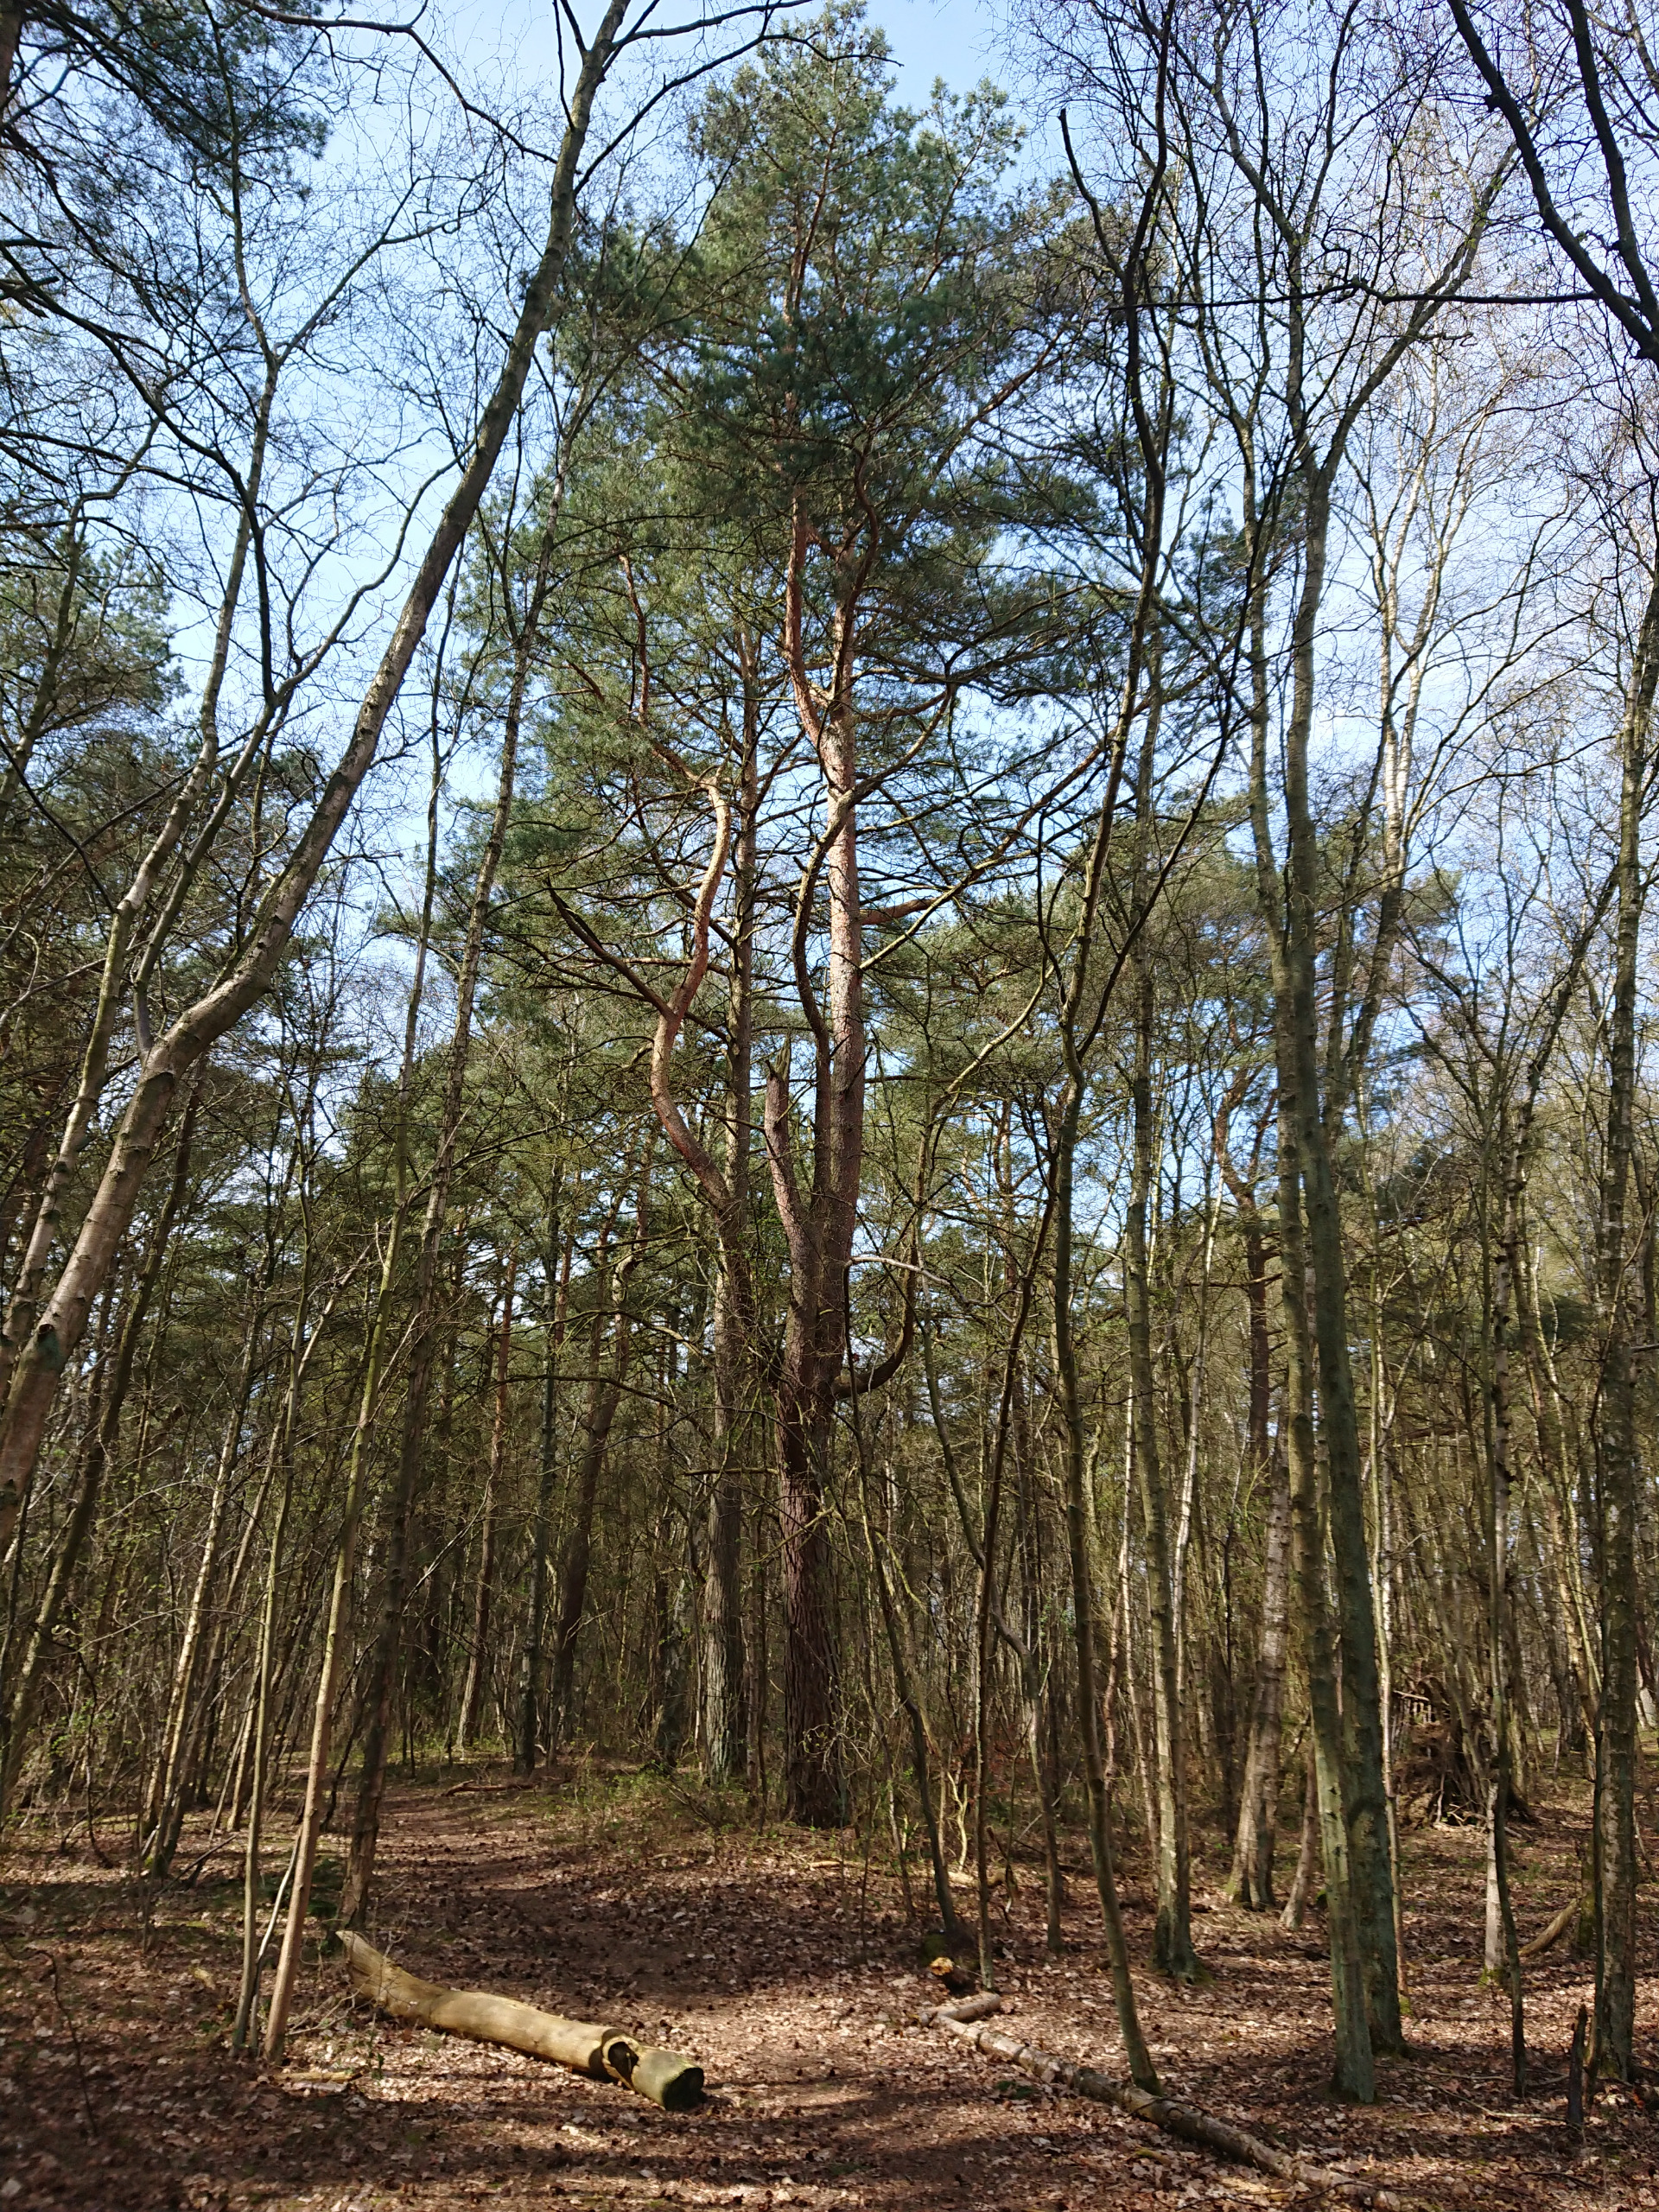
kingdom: Plantae
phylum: Tracheophyta
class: Pinopsida
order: Pinales
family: Pinaceae
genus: Pinus
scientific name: Pinus sylvestris
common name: Skov-fyr
